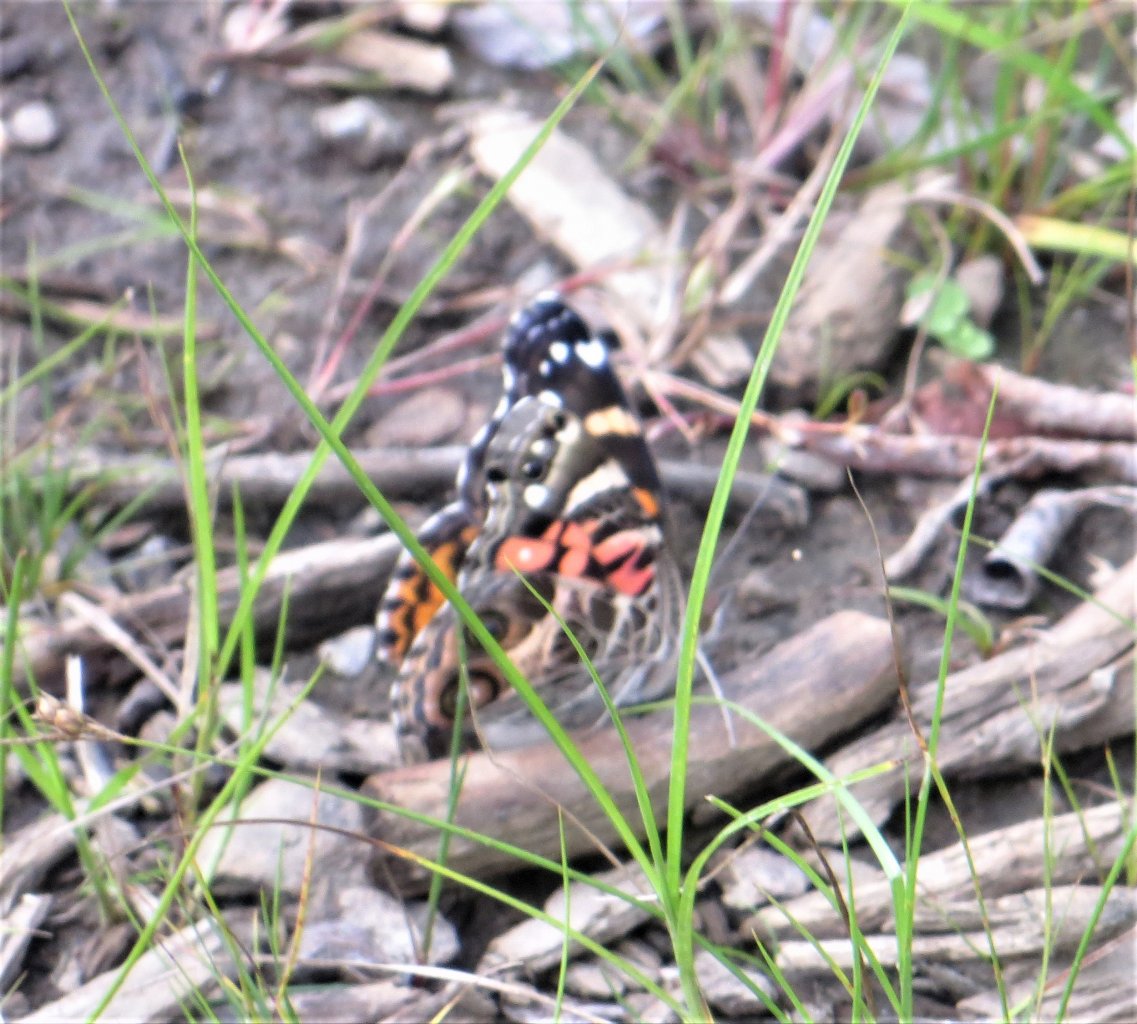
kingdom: Animalia
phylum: Arthropoda
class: Insecta
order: Lepidoptera
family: Nymphalidae
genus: Vanessa
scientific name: Vanessa virginiensis
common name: American Lady
